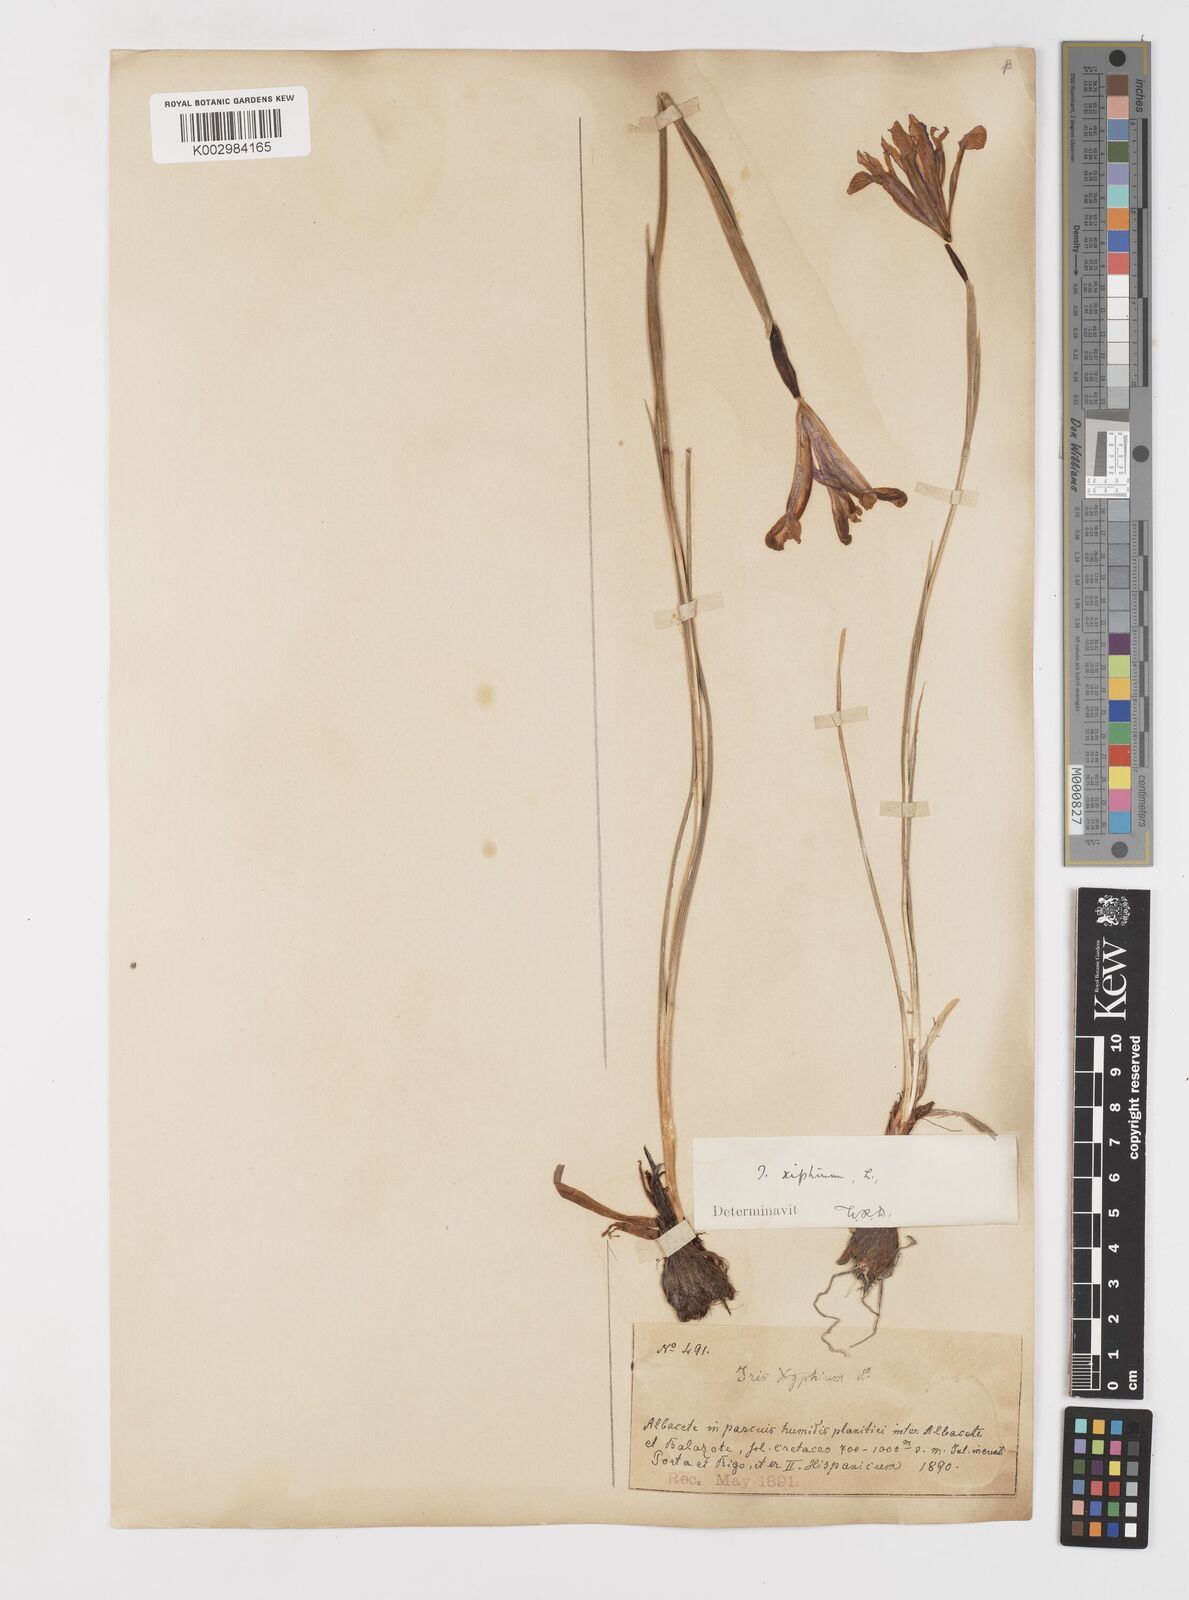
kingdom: Plantae
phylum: Tracheophyta
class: Liliopsida
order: Asparagales
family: Iridaceae
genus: Iris
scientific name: Iris xiphium
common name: Spanish iris
